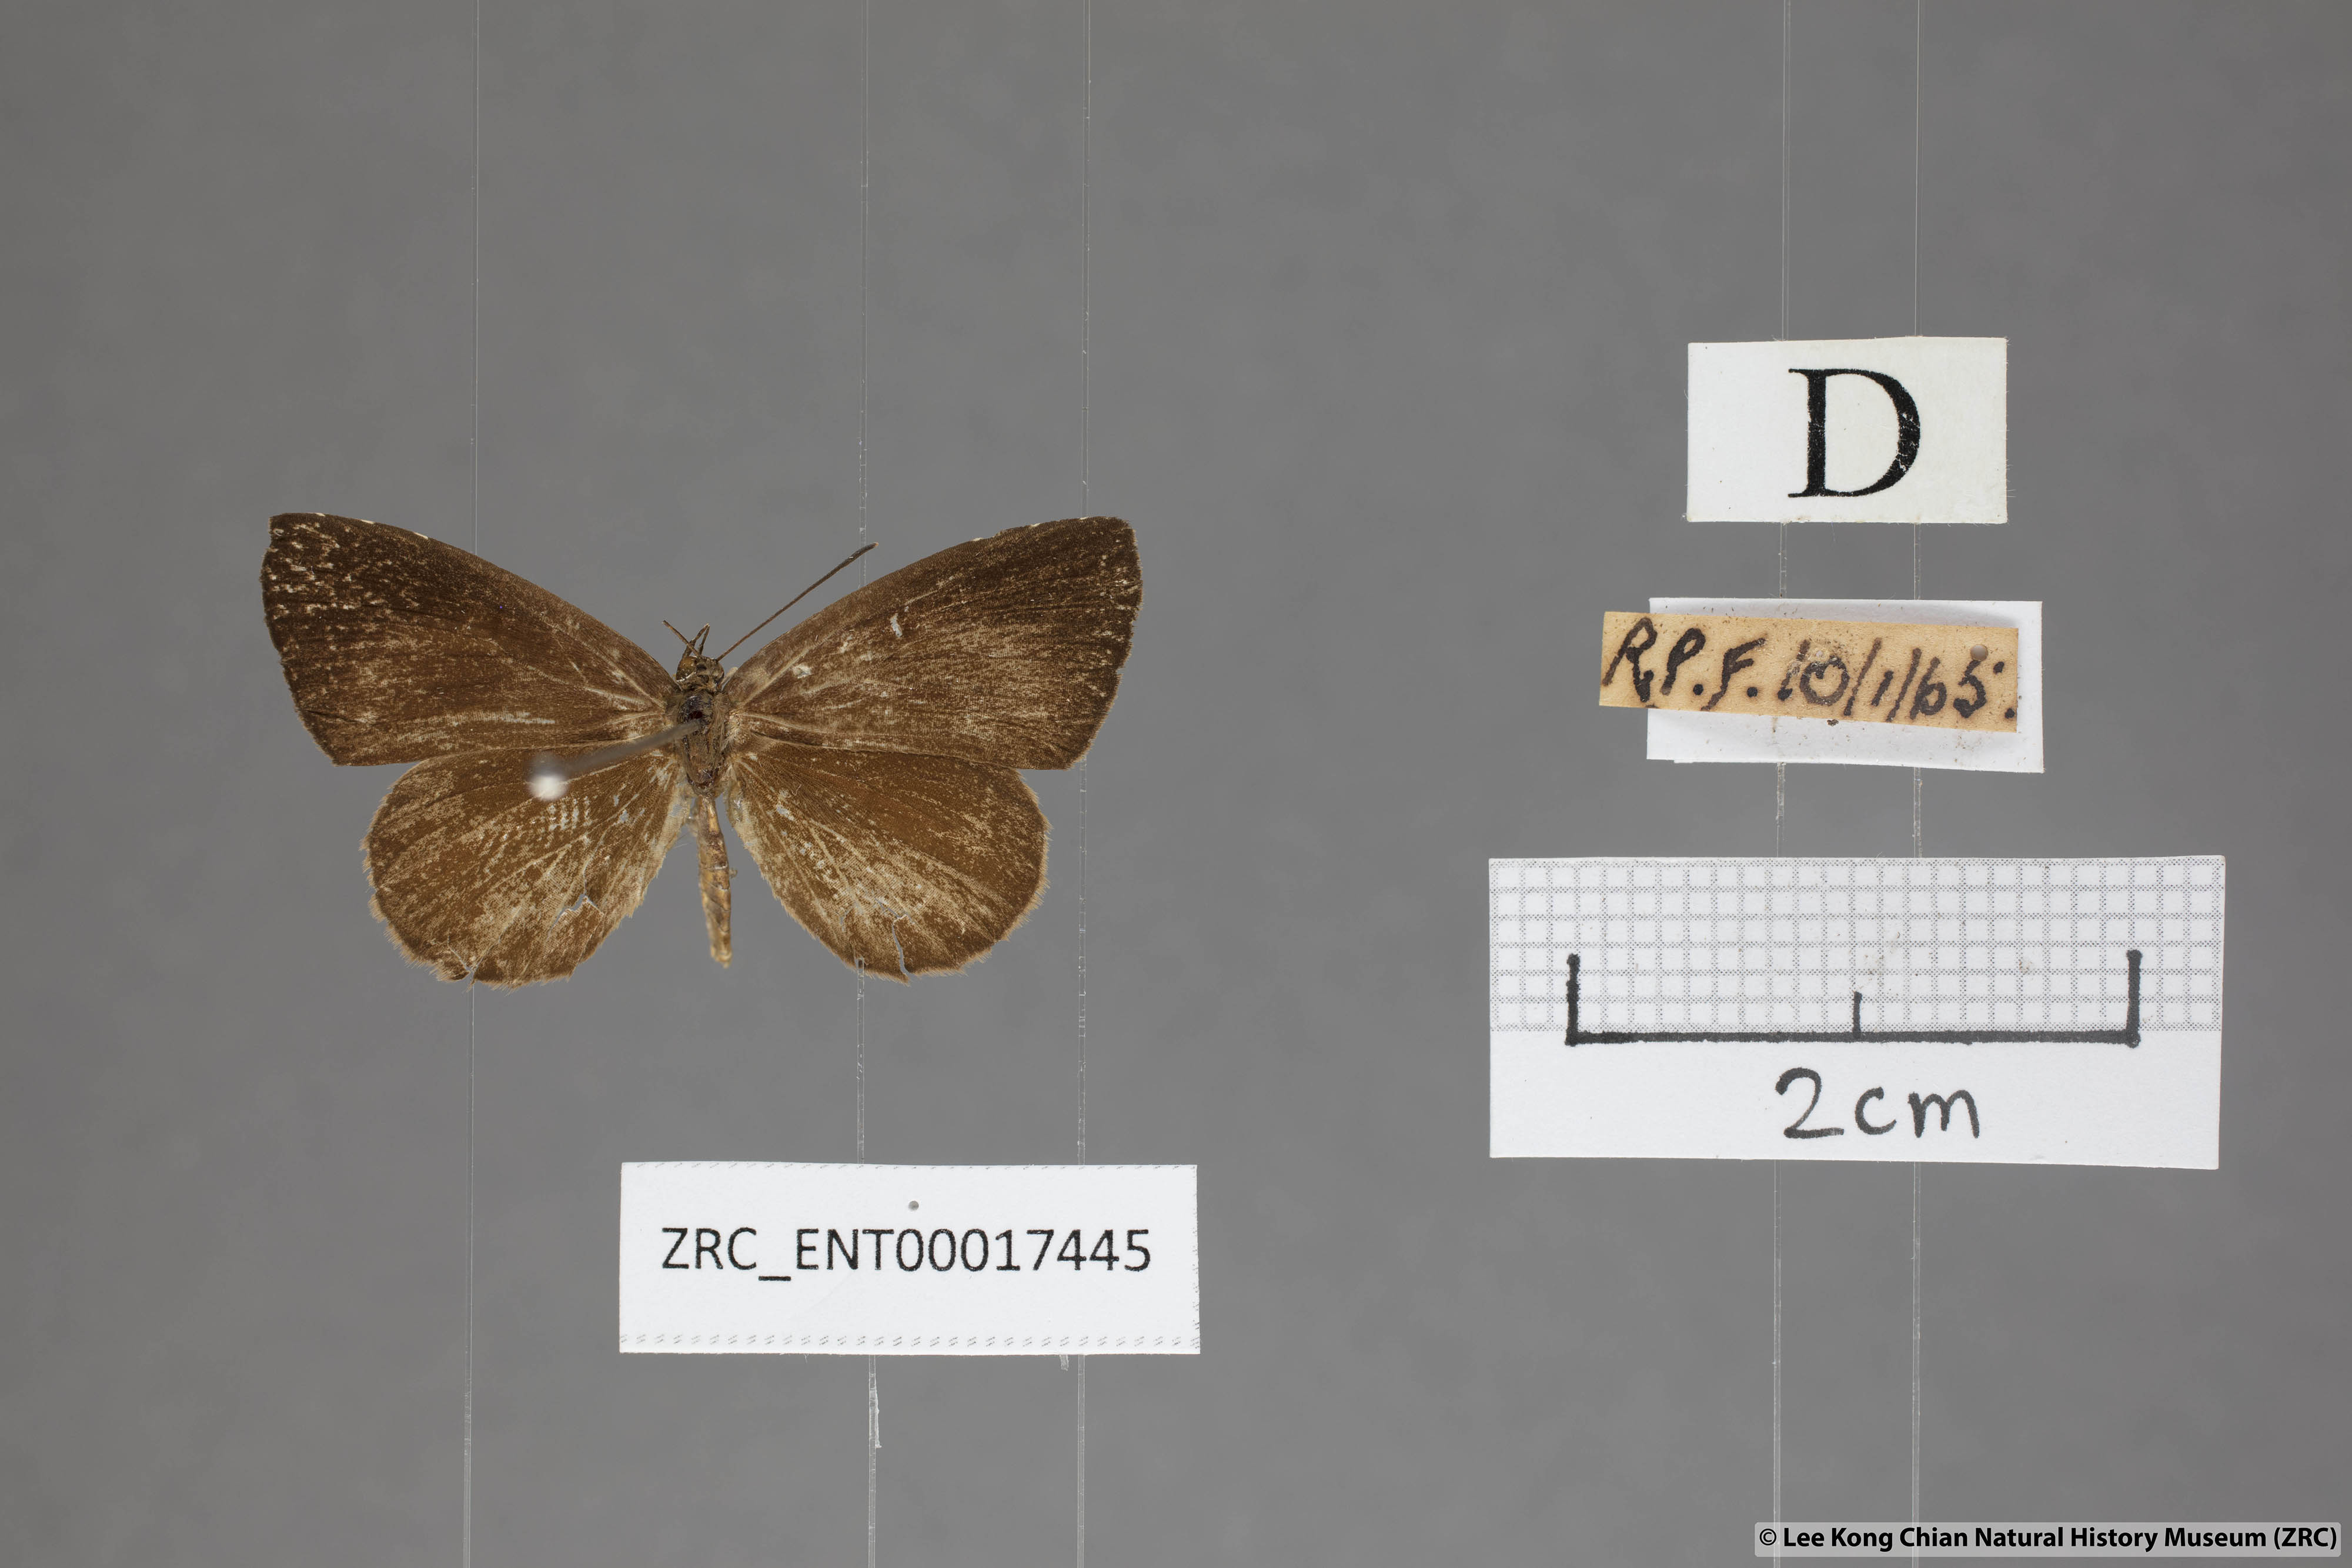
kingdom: Animalia
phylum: Arthropoda
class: Insecta
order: Lepidoptera
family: Lycaenidae
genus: Miletus
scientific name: Miletus gaesa
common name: Brown brownie
